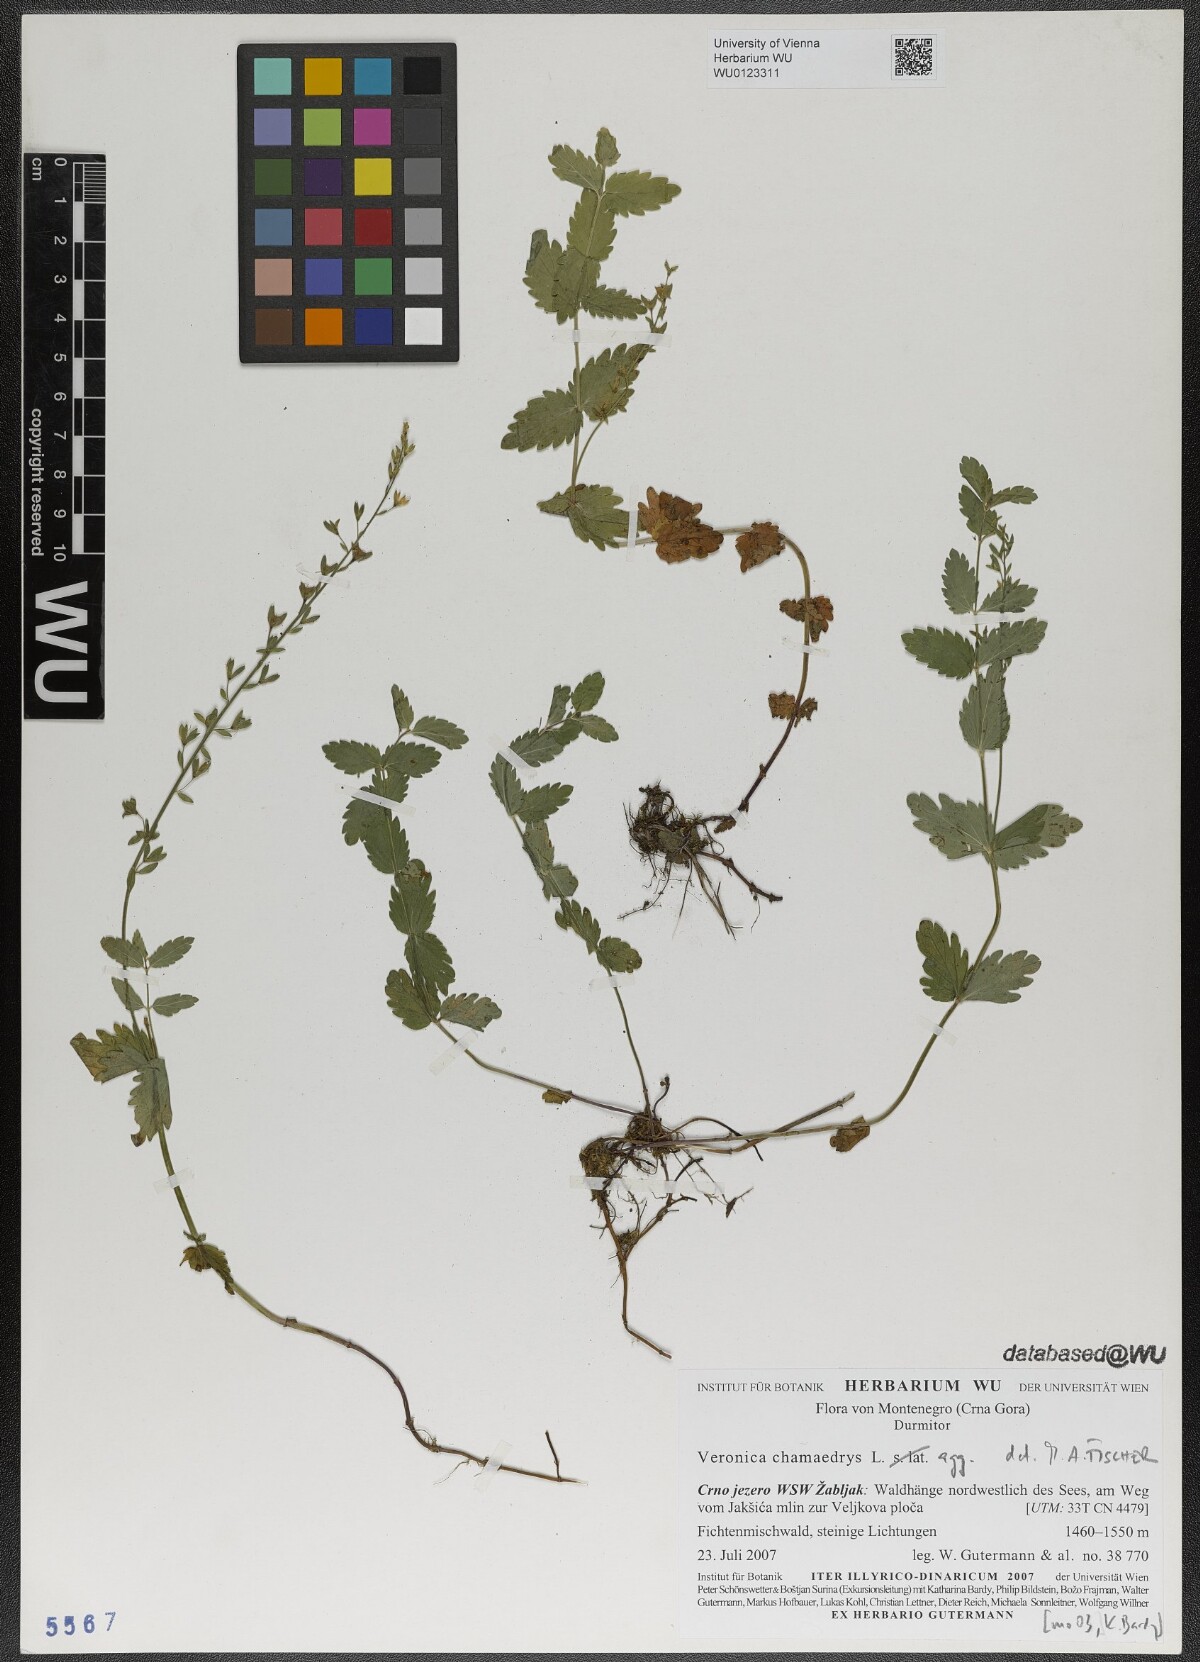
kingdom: Plantae
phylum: Tracheophyta
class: Magnoliopsida
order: Lamiales
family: Plantaginaceae
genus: Veronica
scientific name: Veronica chamaedrys
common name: Germander speedwell
